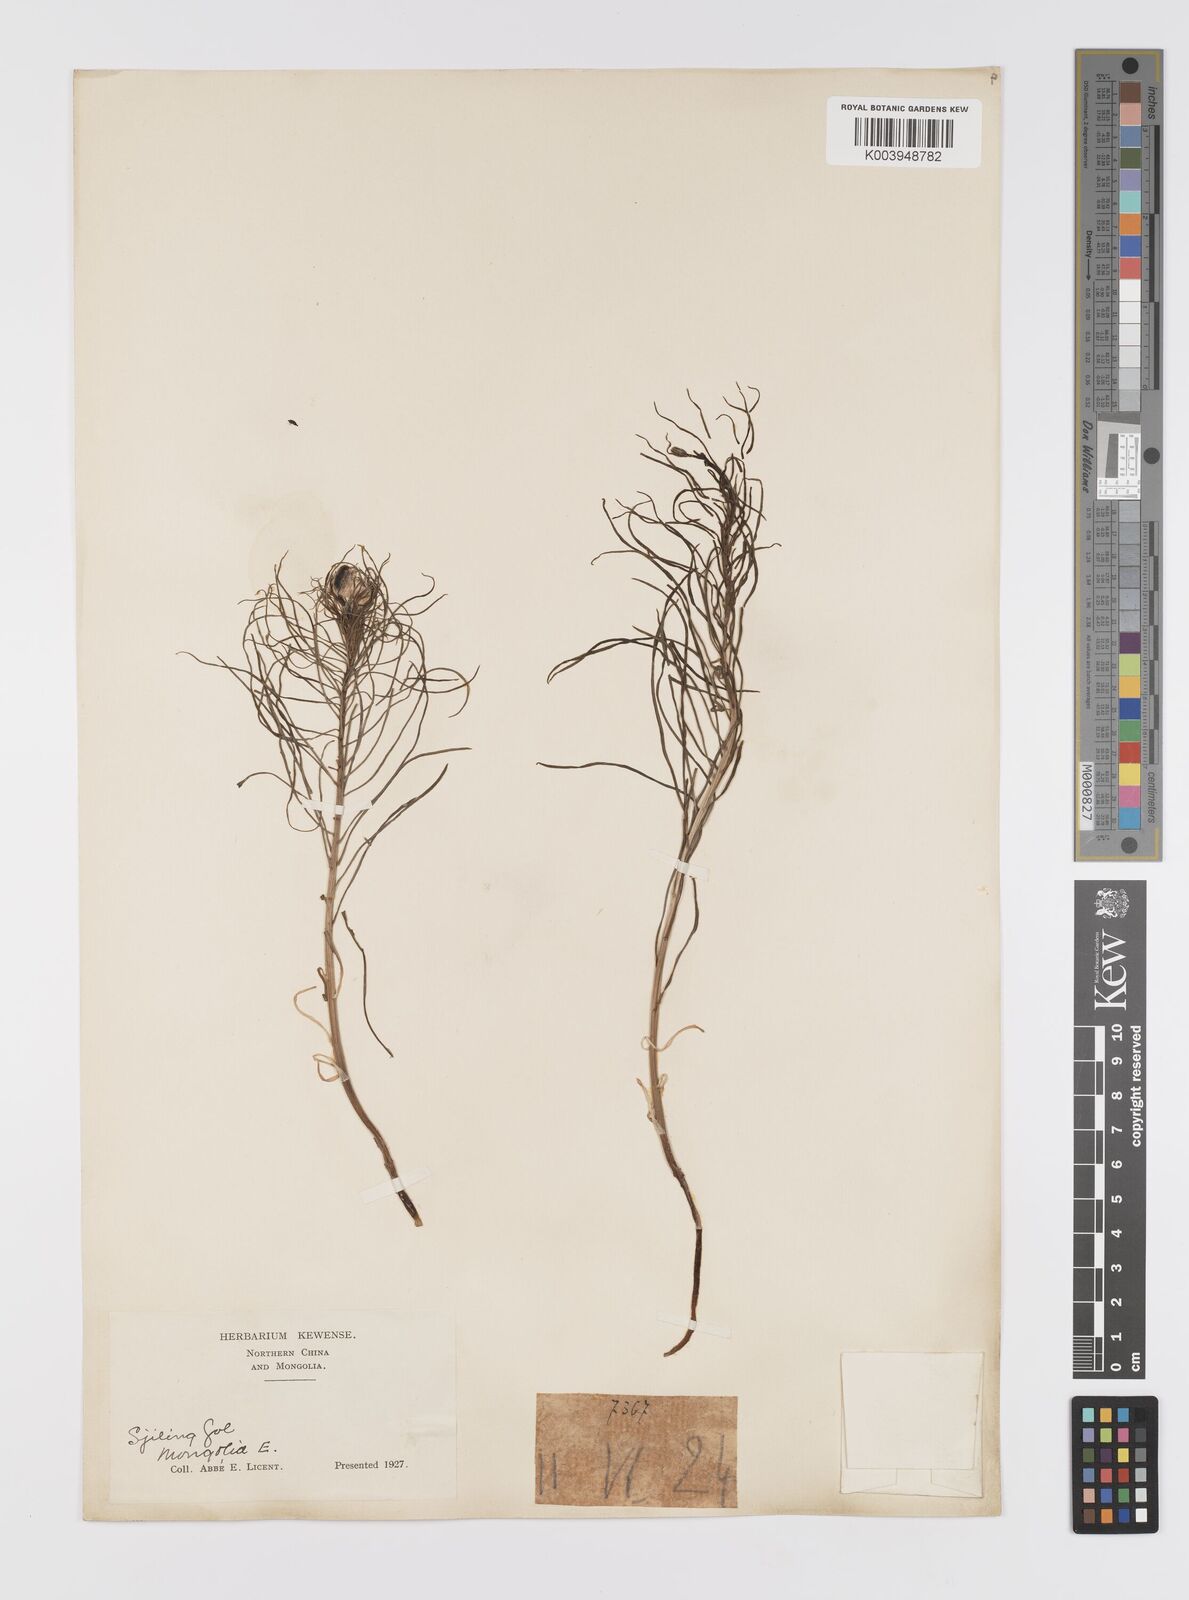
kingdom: Plantae
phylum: Tracheophyta
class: Liliopsida
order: Liliales
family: Liliaceae
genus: Lilium
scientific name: Lilium pumilum
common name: Coral lily
